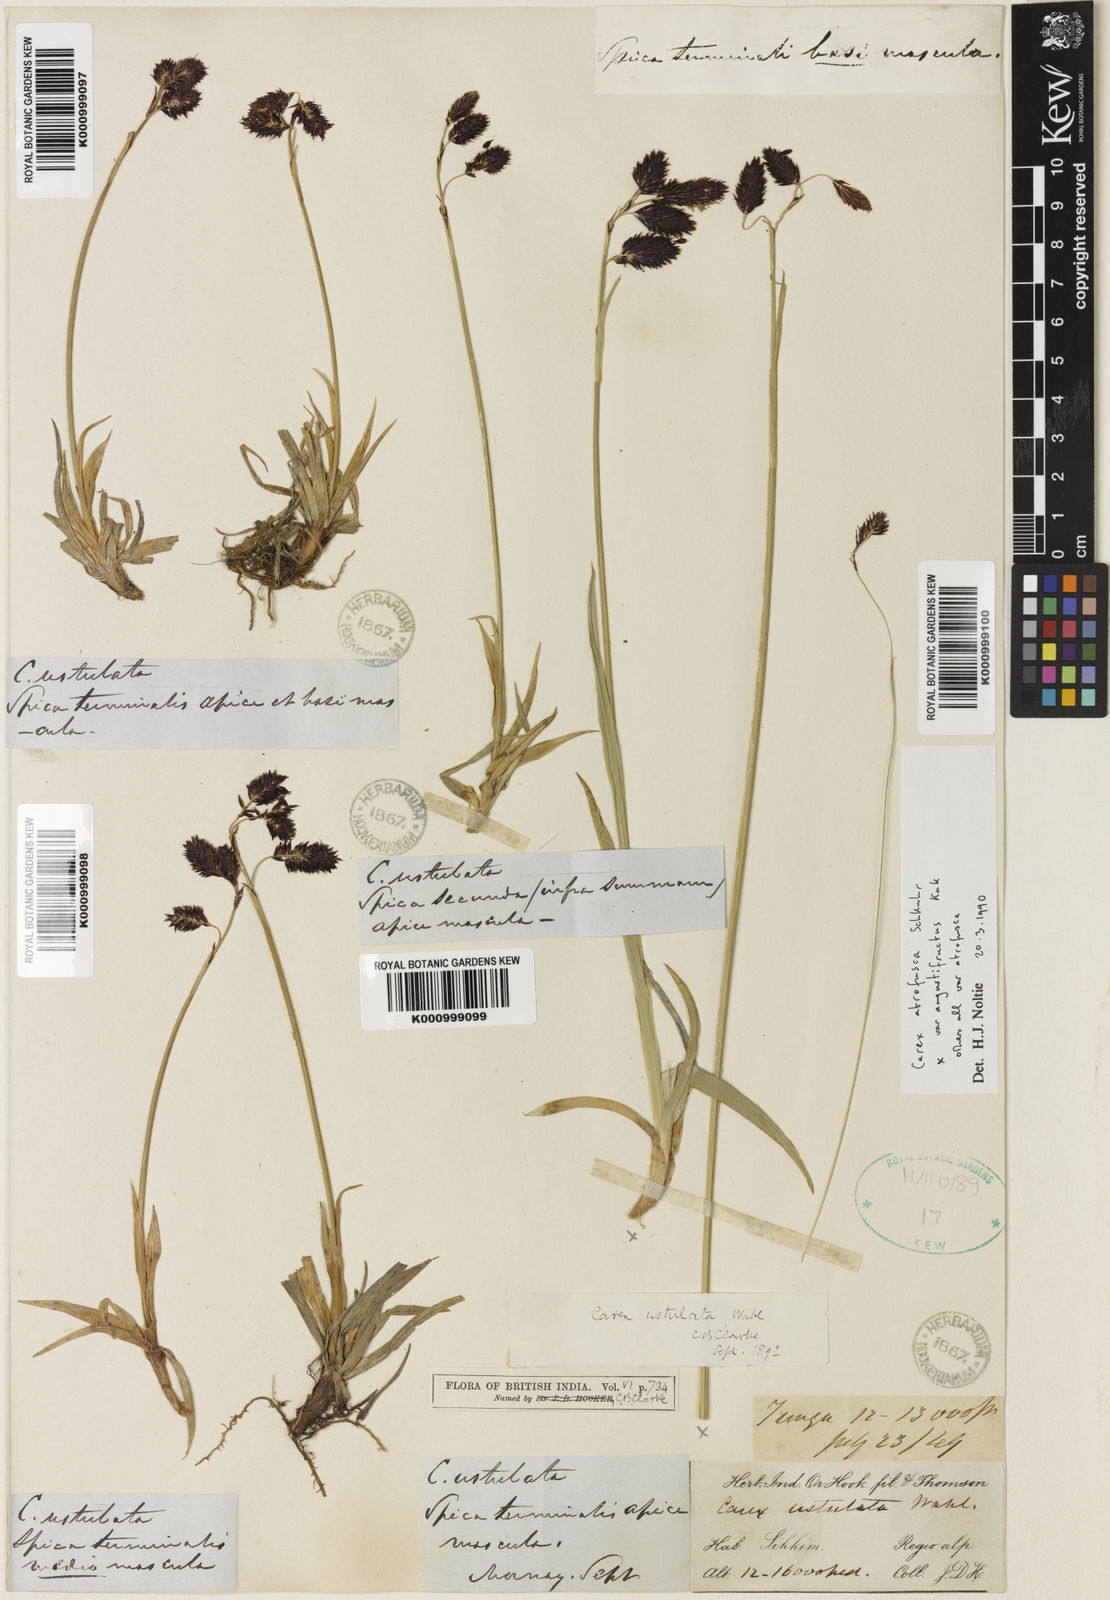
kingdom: Plantae
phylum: Tracheophyta
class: Liliopsida
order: Poales
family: Cyperaceae
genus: Carex
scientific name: Carex atrofusca
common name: Scorched alpine-sedge
